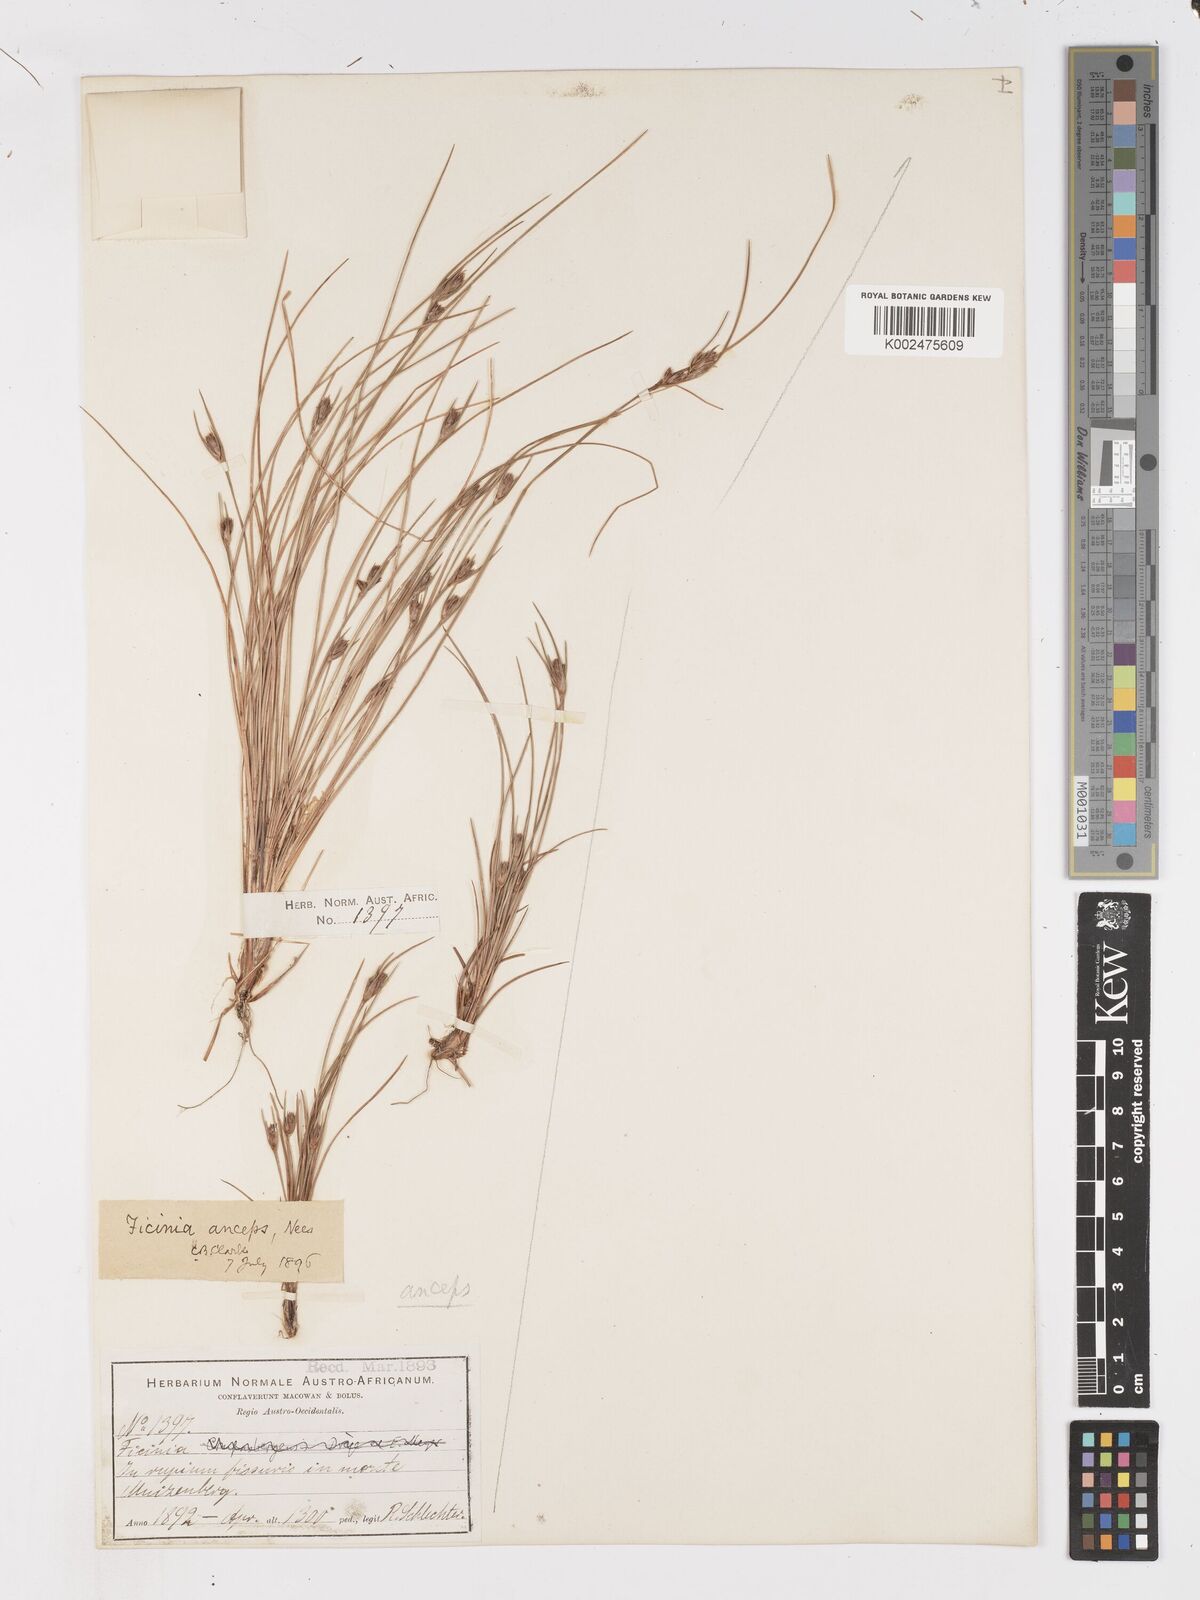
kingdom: Plantae
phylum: Tracheophyta
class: Liliopsida
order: Poales
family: Cyperaceae
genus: Ficinia
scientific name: Ficinia anceps
